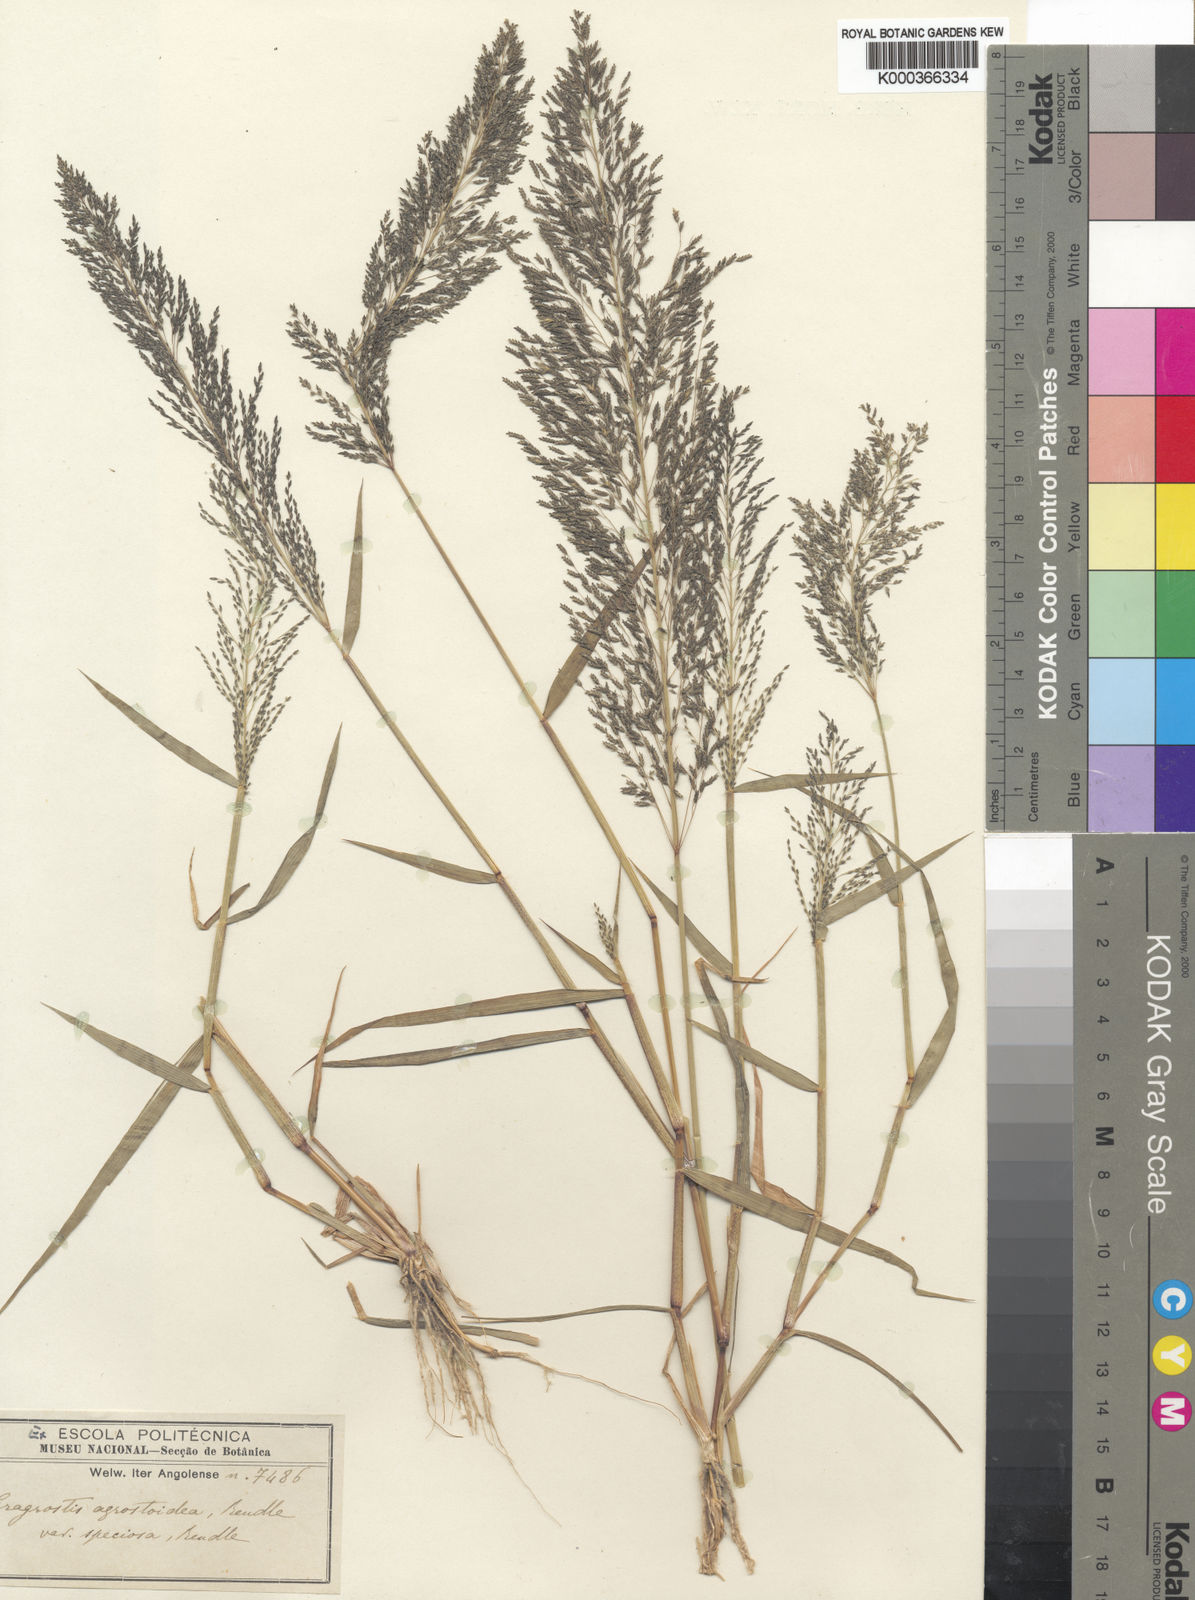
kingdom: Plantae
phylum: Tracheophyta
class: Liliopsida
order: Poales
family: Poaceae
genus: Eragrostis
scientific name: Eragrostis cylindriflora
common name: Cylinderflower lovegrass
